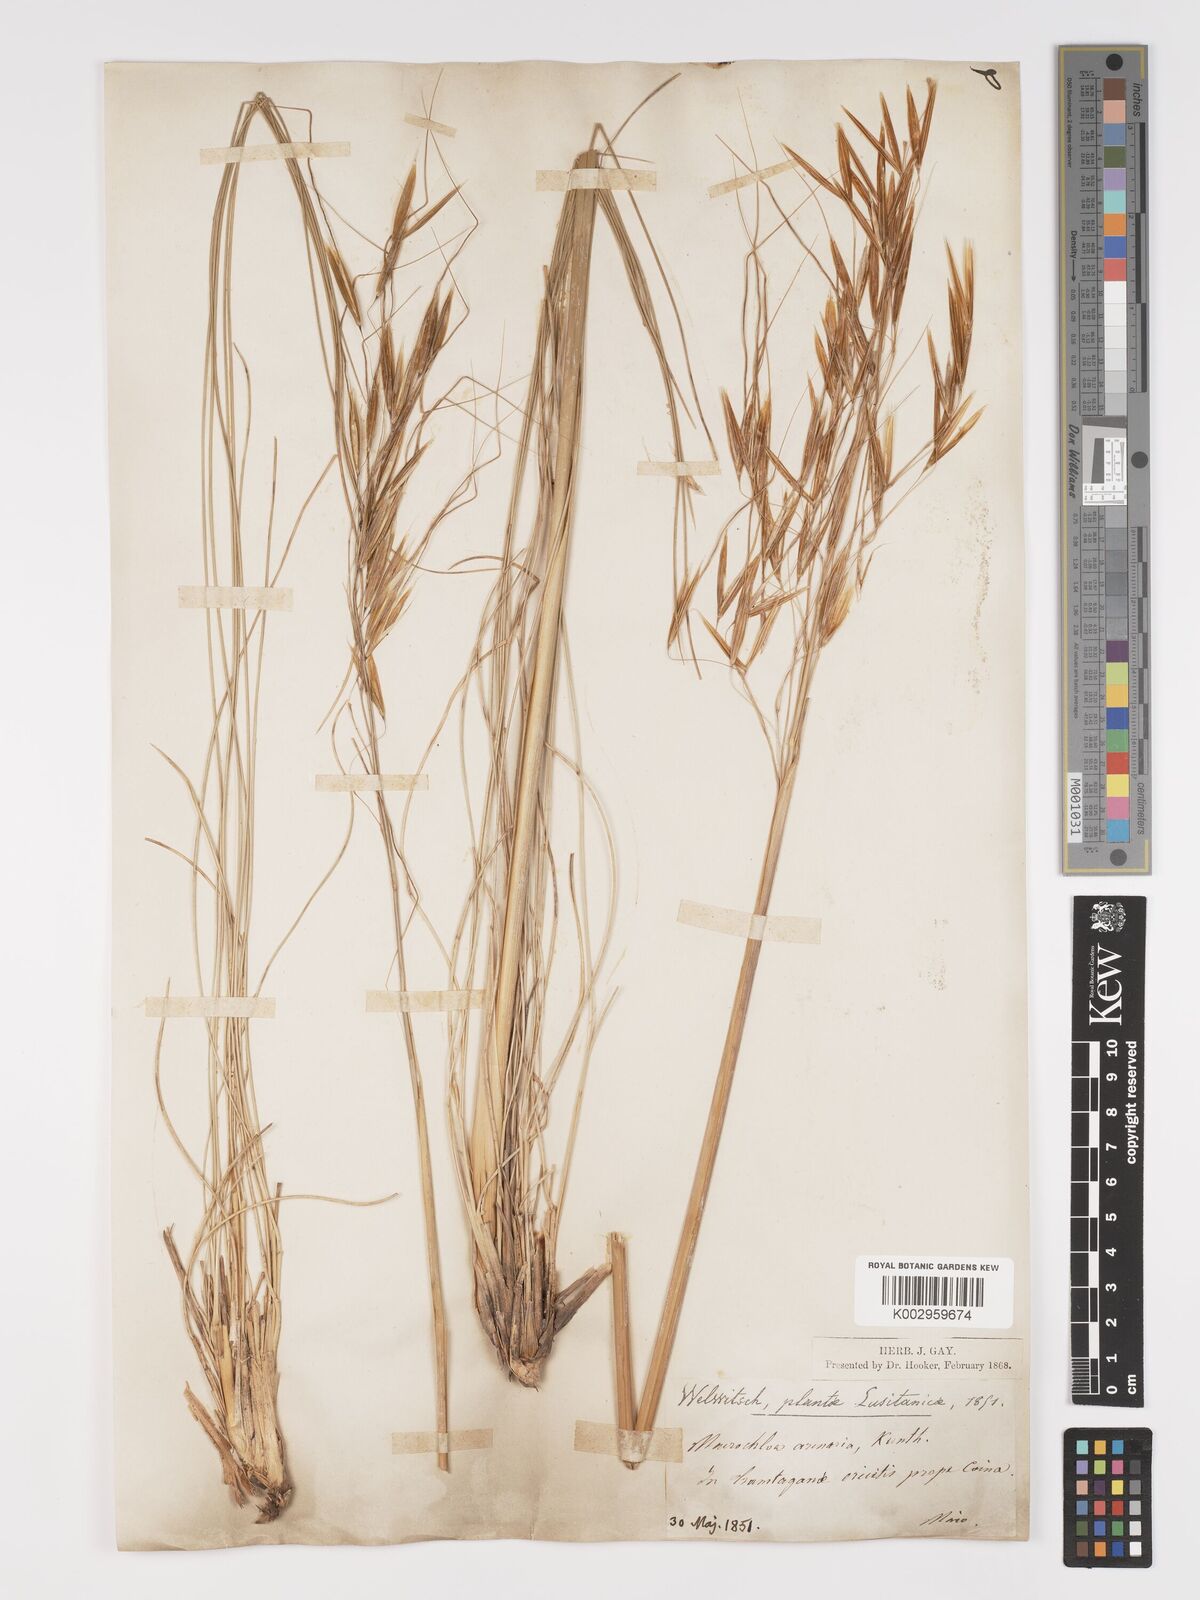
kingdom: Plantae
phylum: Tracheophyta
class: Liliopsida
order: Poales
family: Poaceae
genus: Celtica
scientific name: Celtica gigantea
